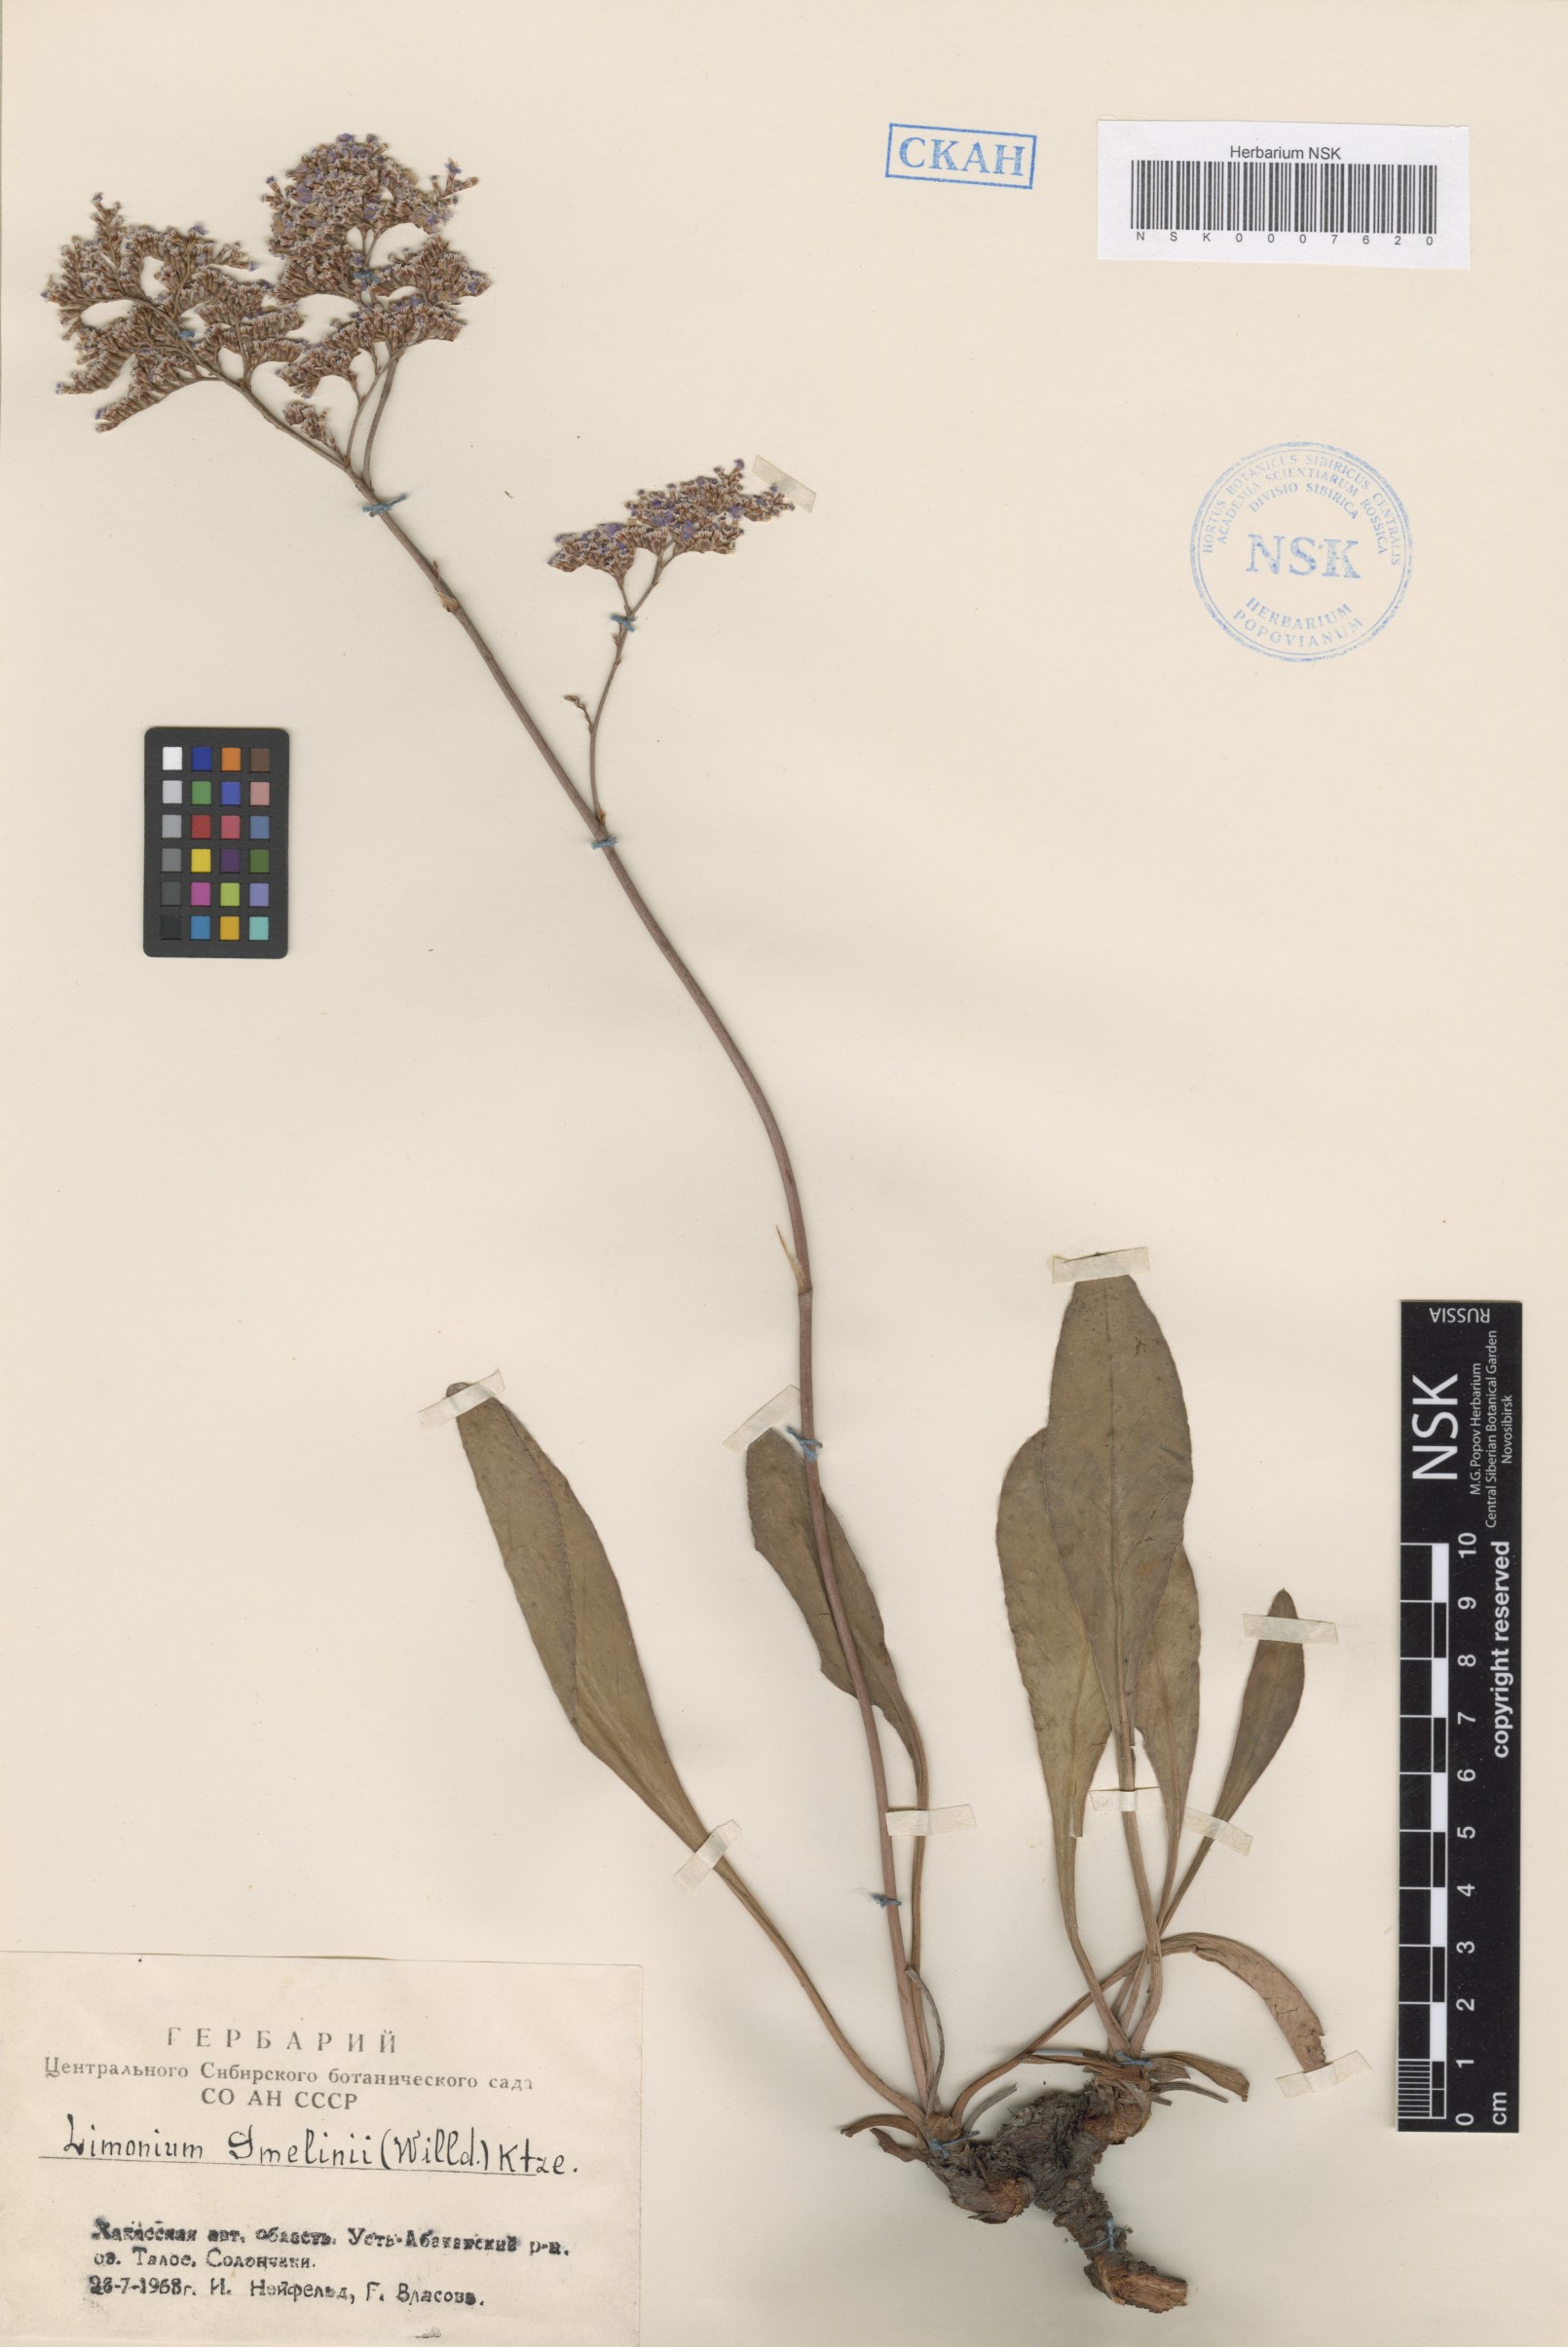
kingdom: Plantae
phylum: Tracheophyta
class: Magnoliopsida
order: Caryophyllales
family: Plumbaginaceae
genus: Limonium
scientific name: Limonium gmelini
